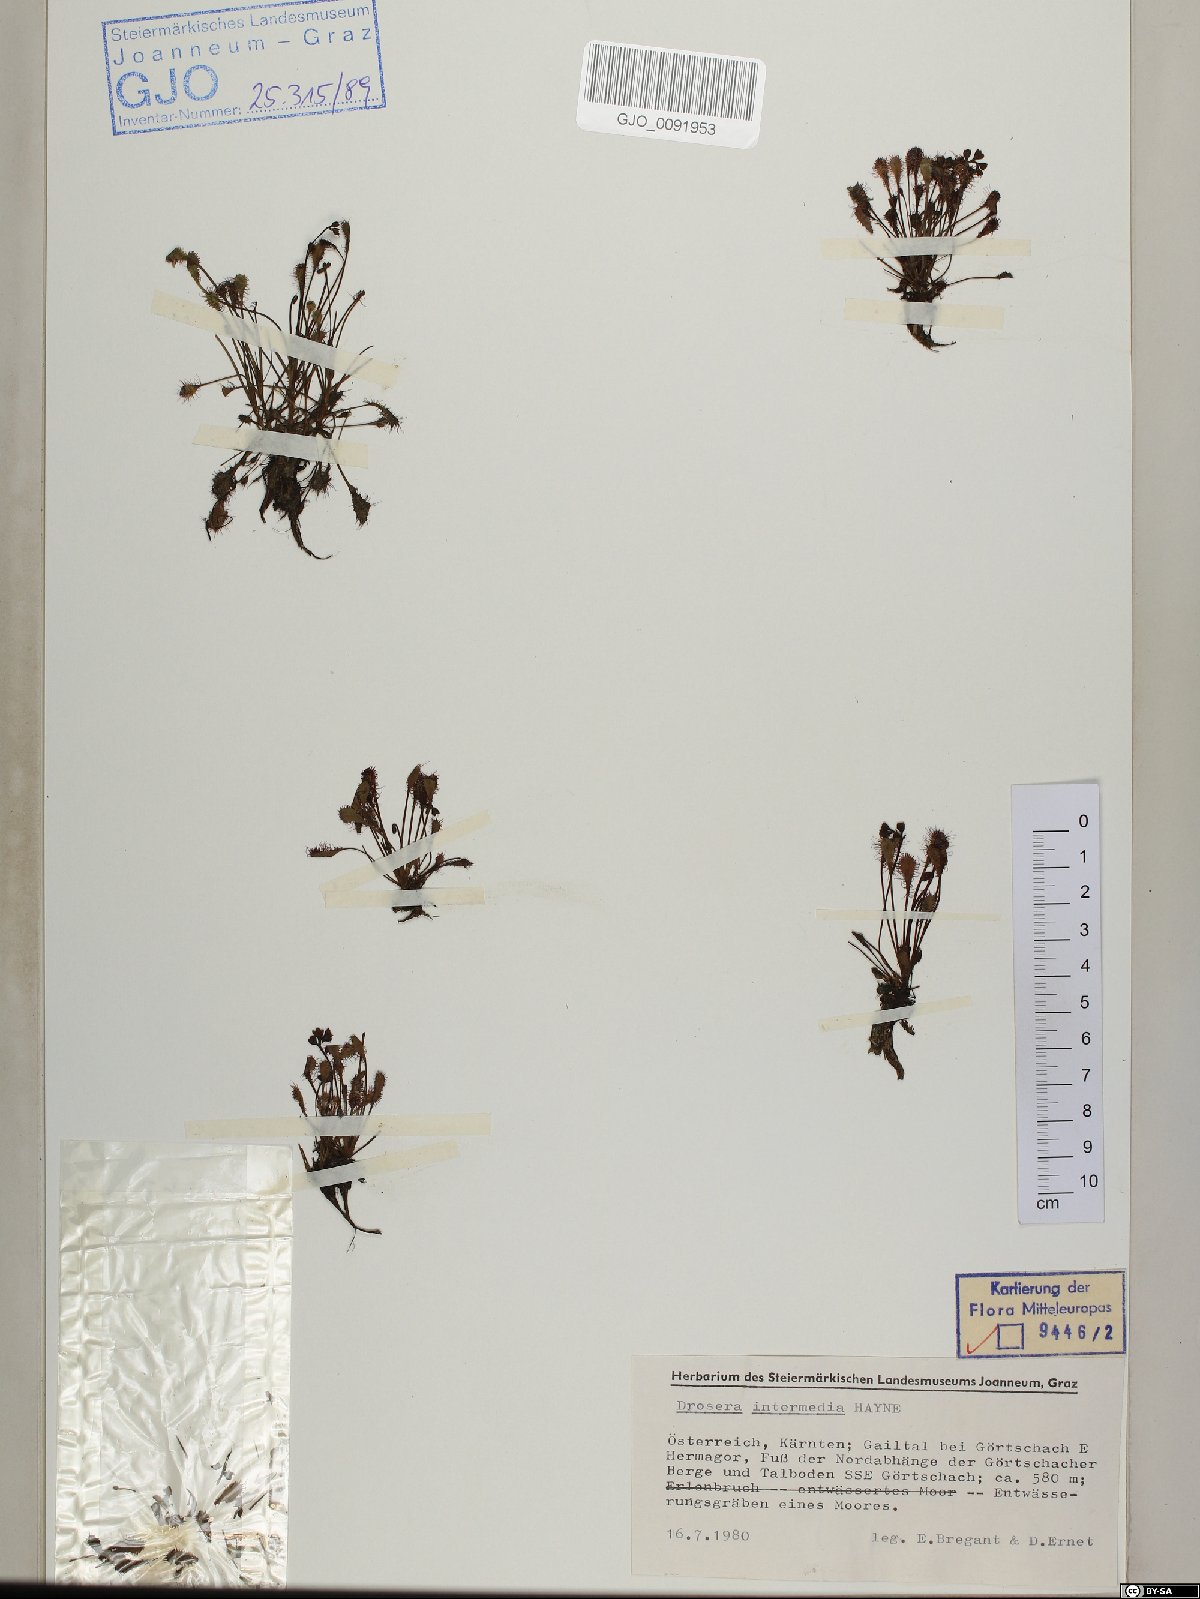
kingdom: Plantae
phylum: Tracheophyta
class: Magnoliopsida
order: Caryophyllales
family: Droseraceae
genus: Drosera
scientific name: Drosera intermedia
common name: Oblong-leaved sundew
